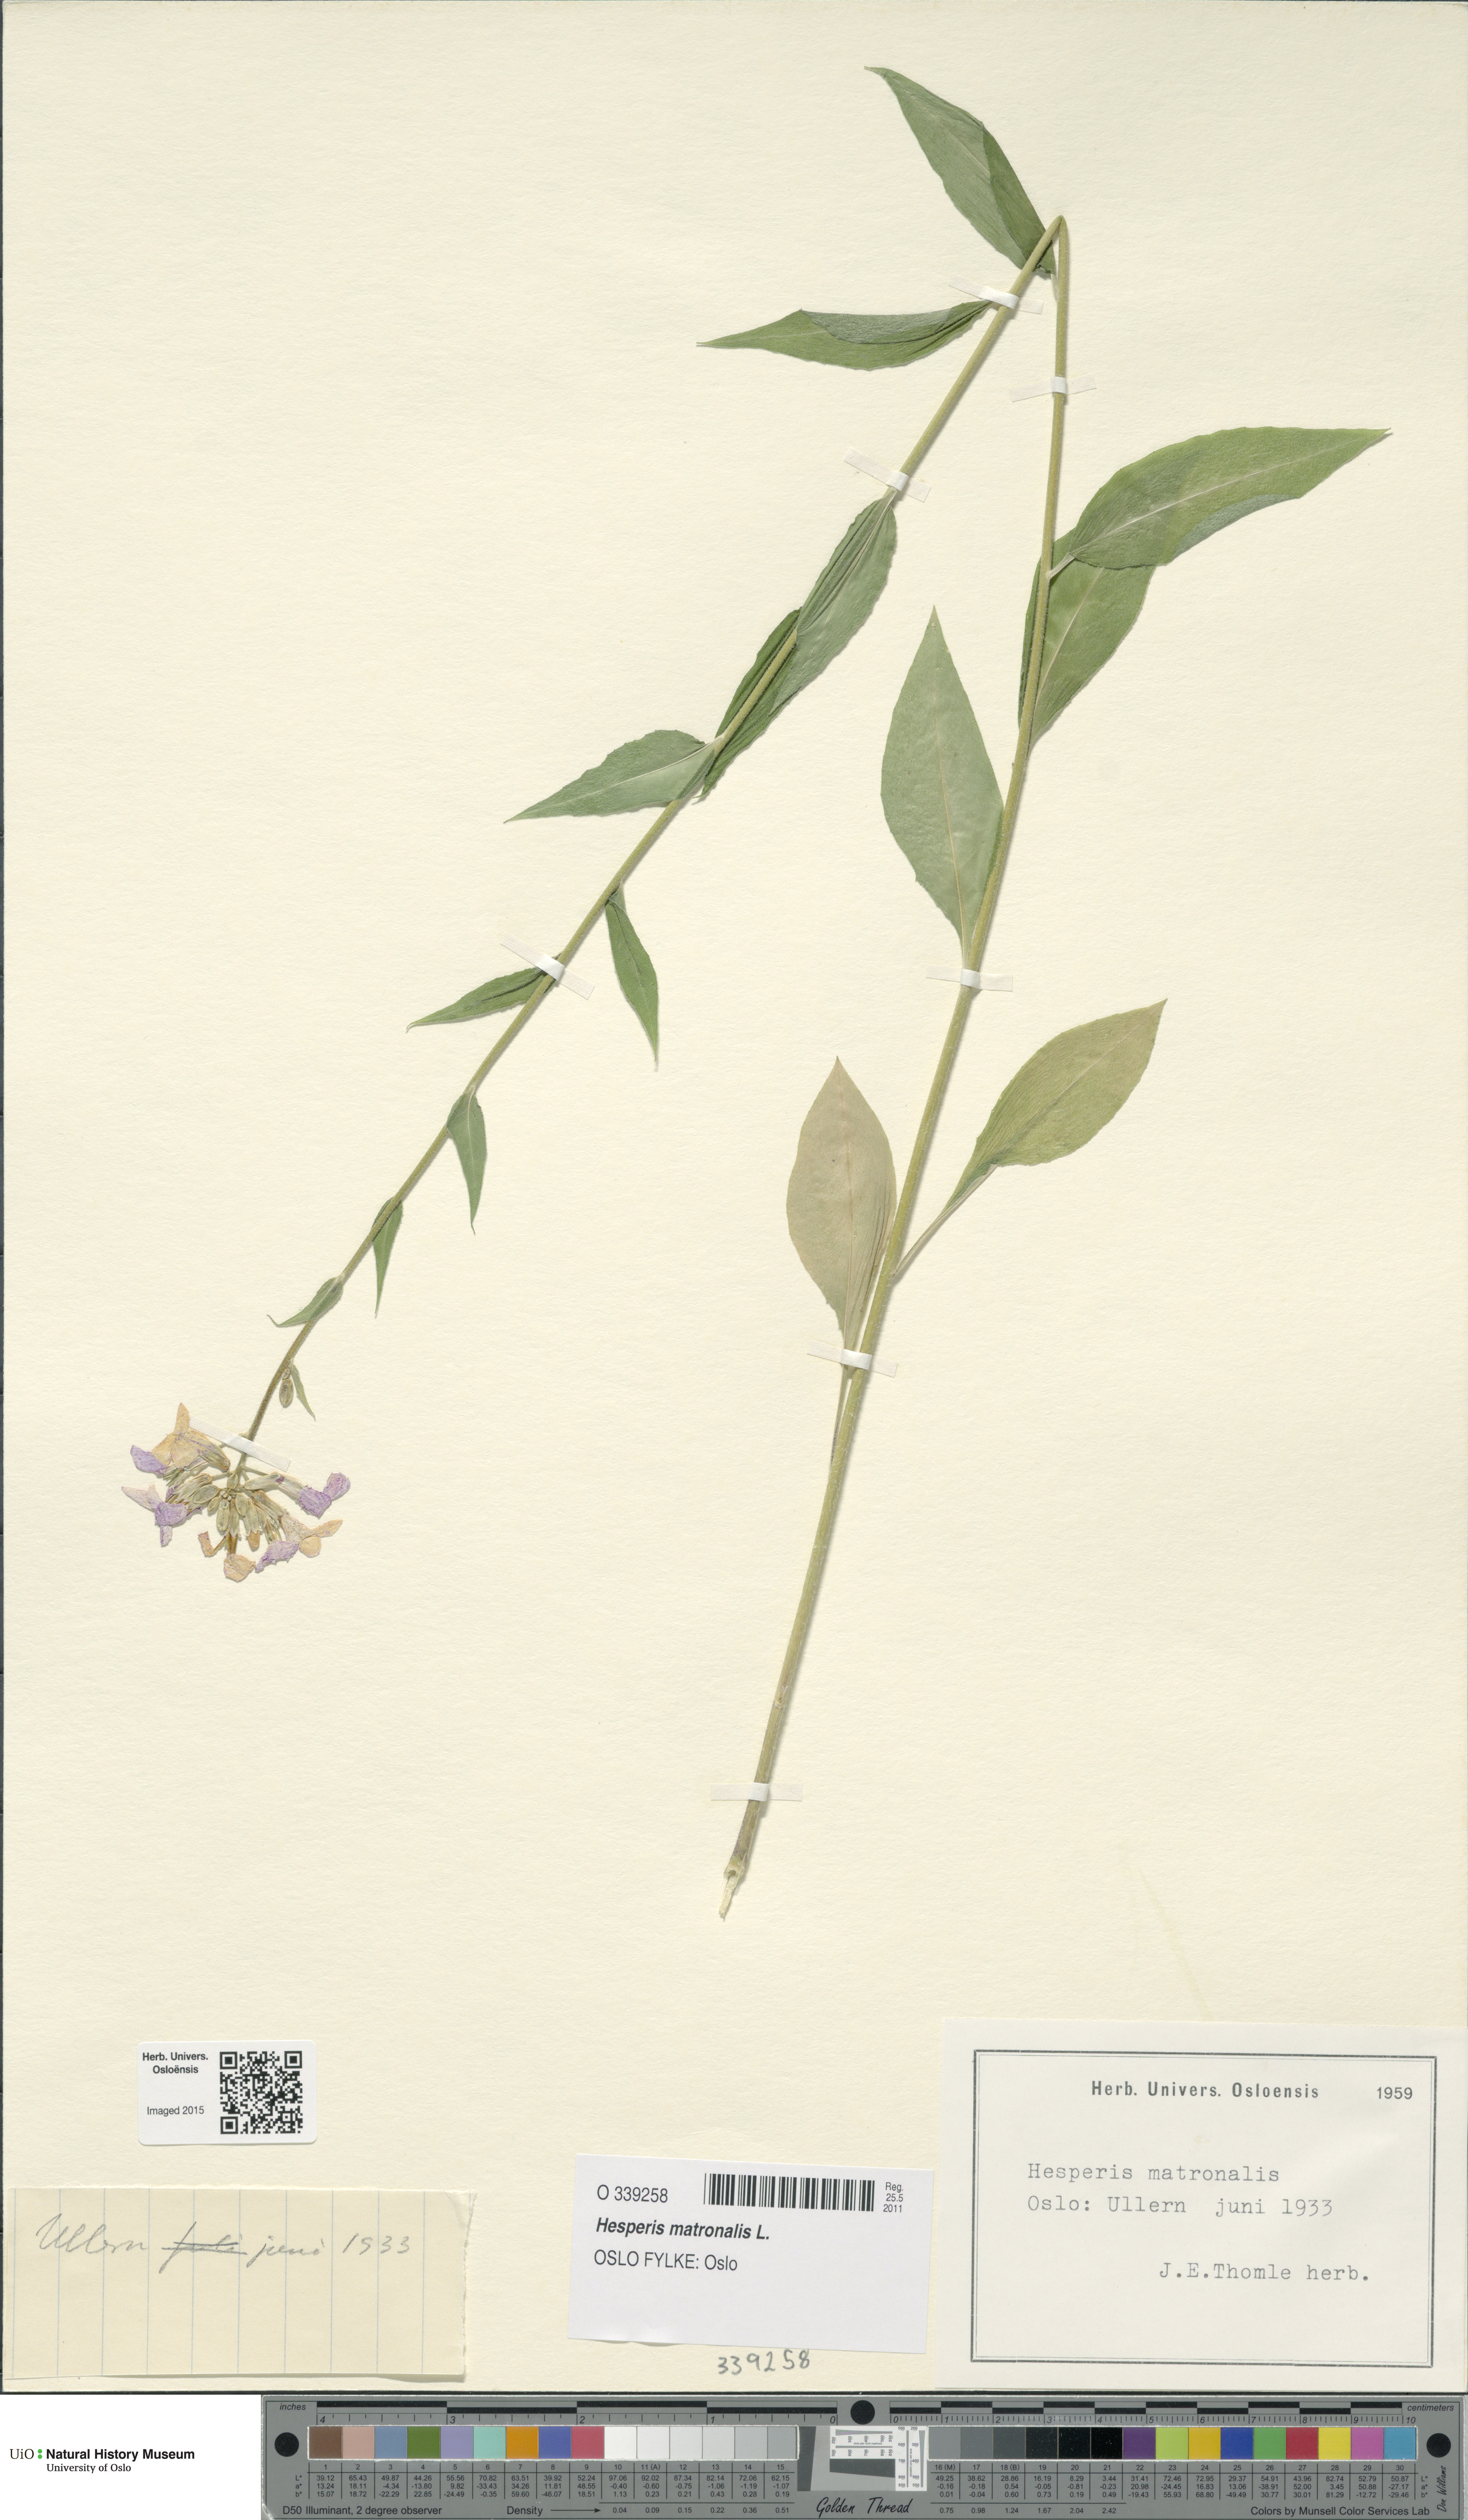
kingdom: Plantae
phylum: Tracheophyta
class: Magnoliopsida
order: Brassicales
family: Brassicaceae
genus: Hesperis
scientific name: Hesperis matronalis
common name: Dame's-violet
